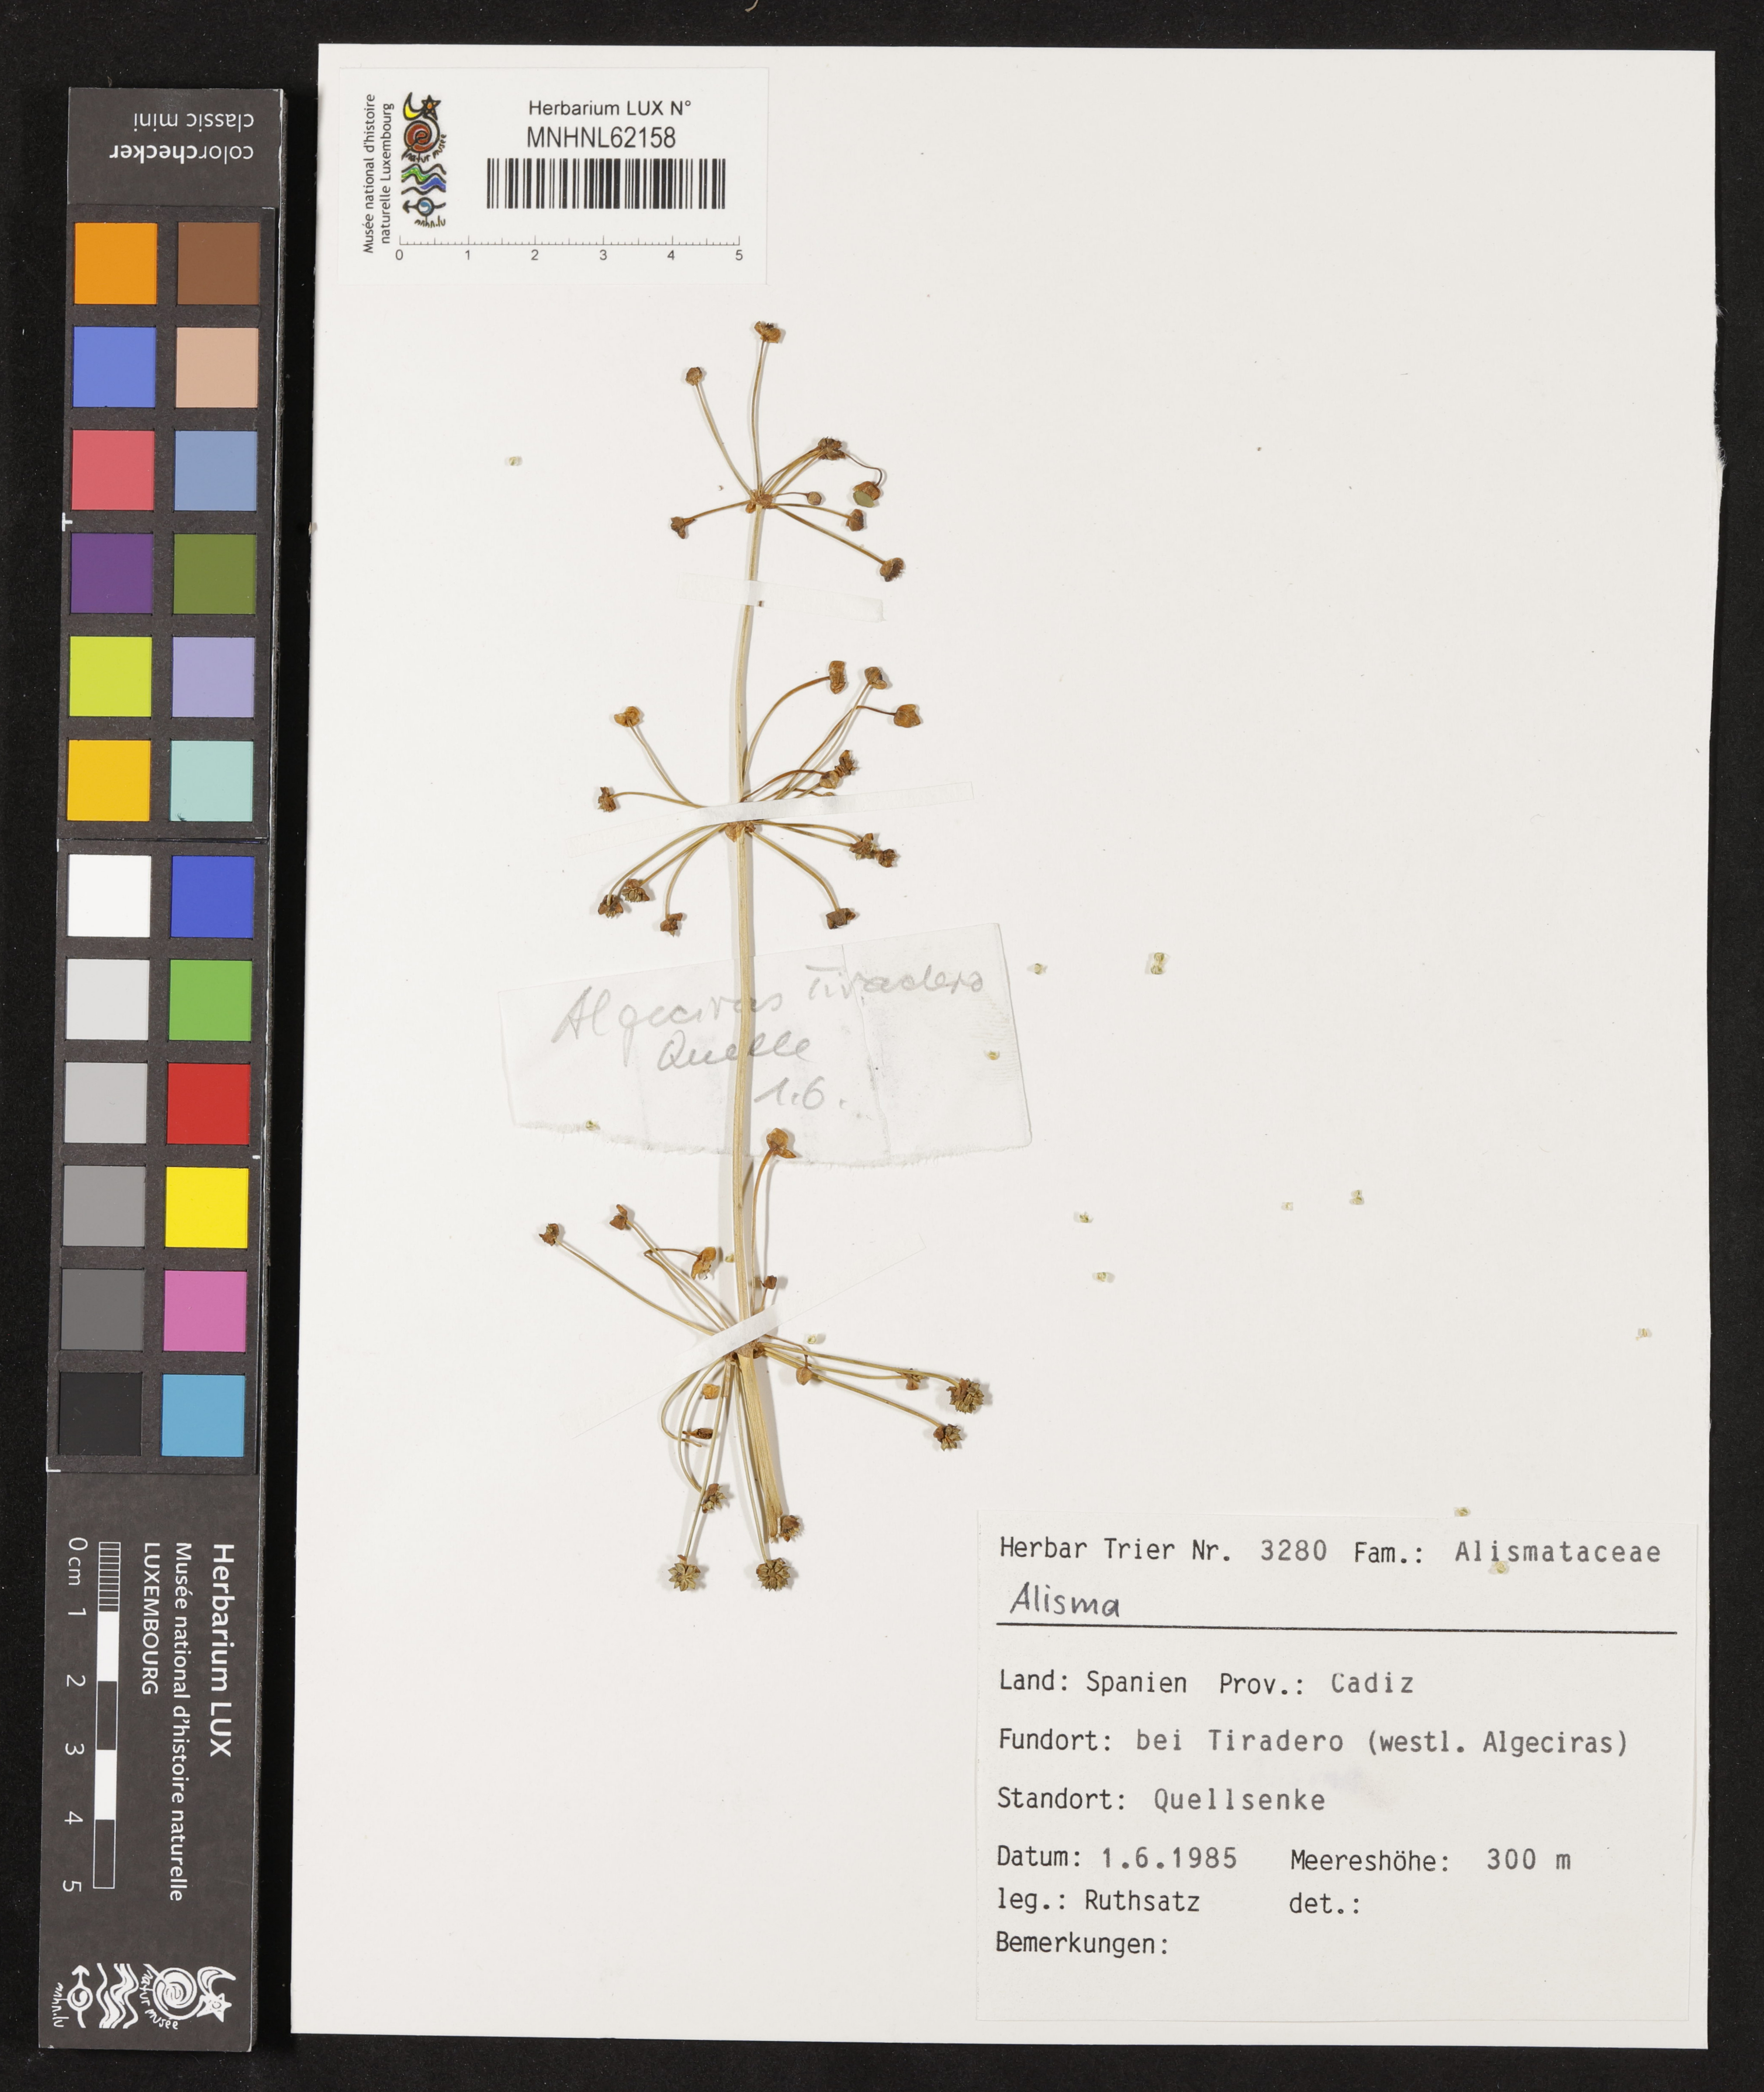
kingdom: Plantae
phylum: Tracheophyta
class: Liliopsida
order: Alismatales
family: Alismataceae
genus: Alisma
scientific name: Alisma
